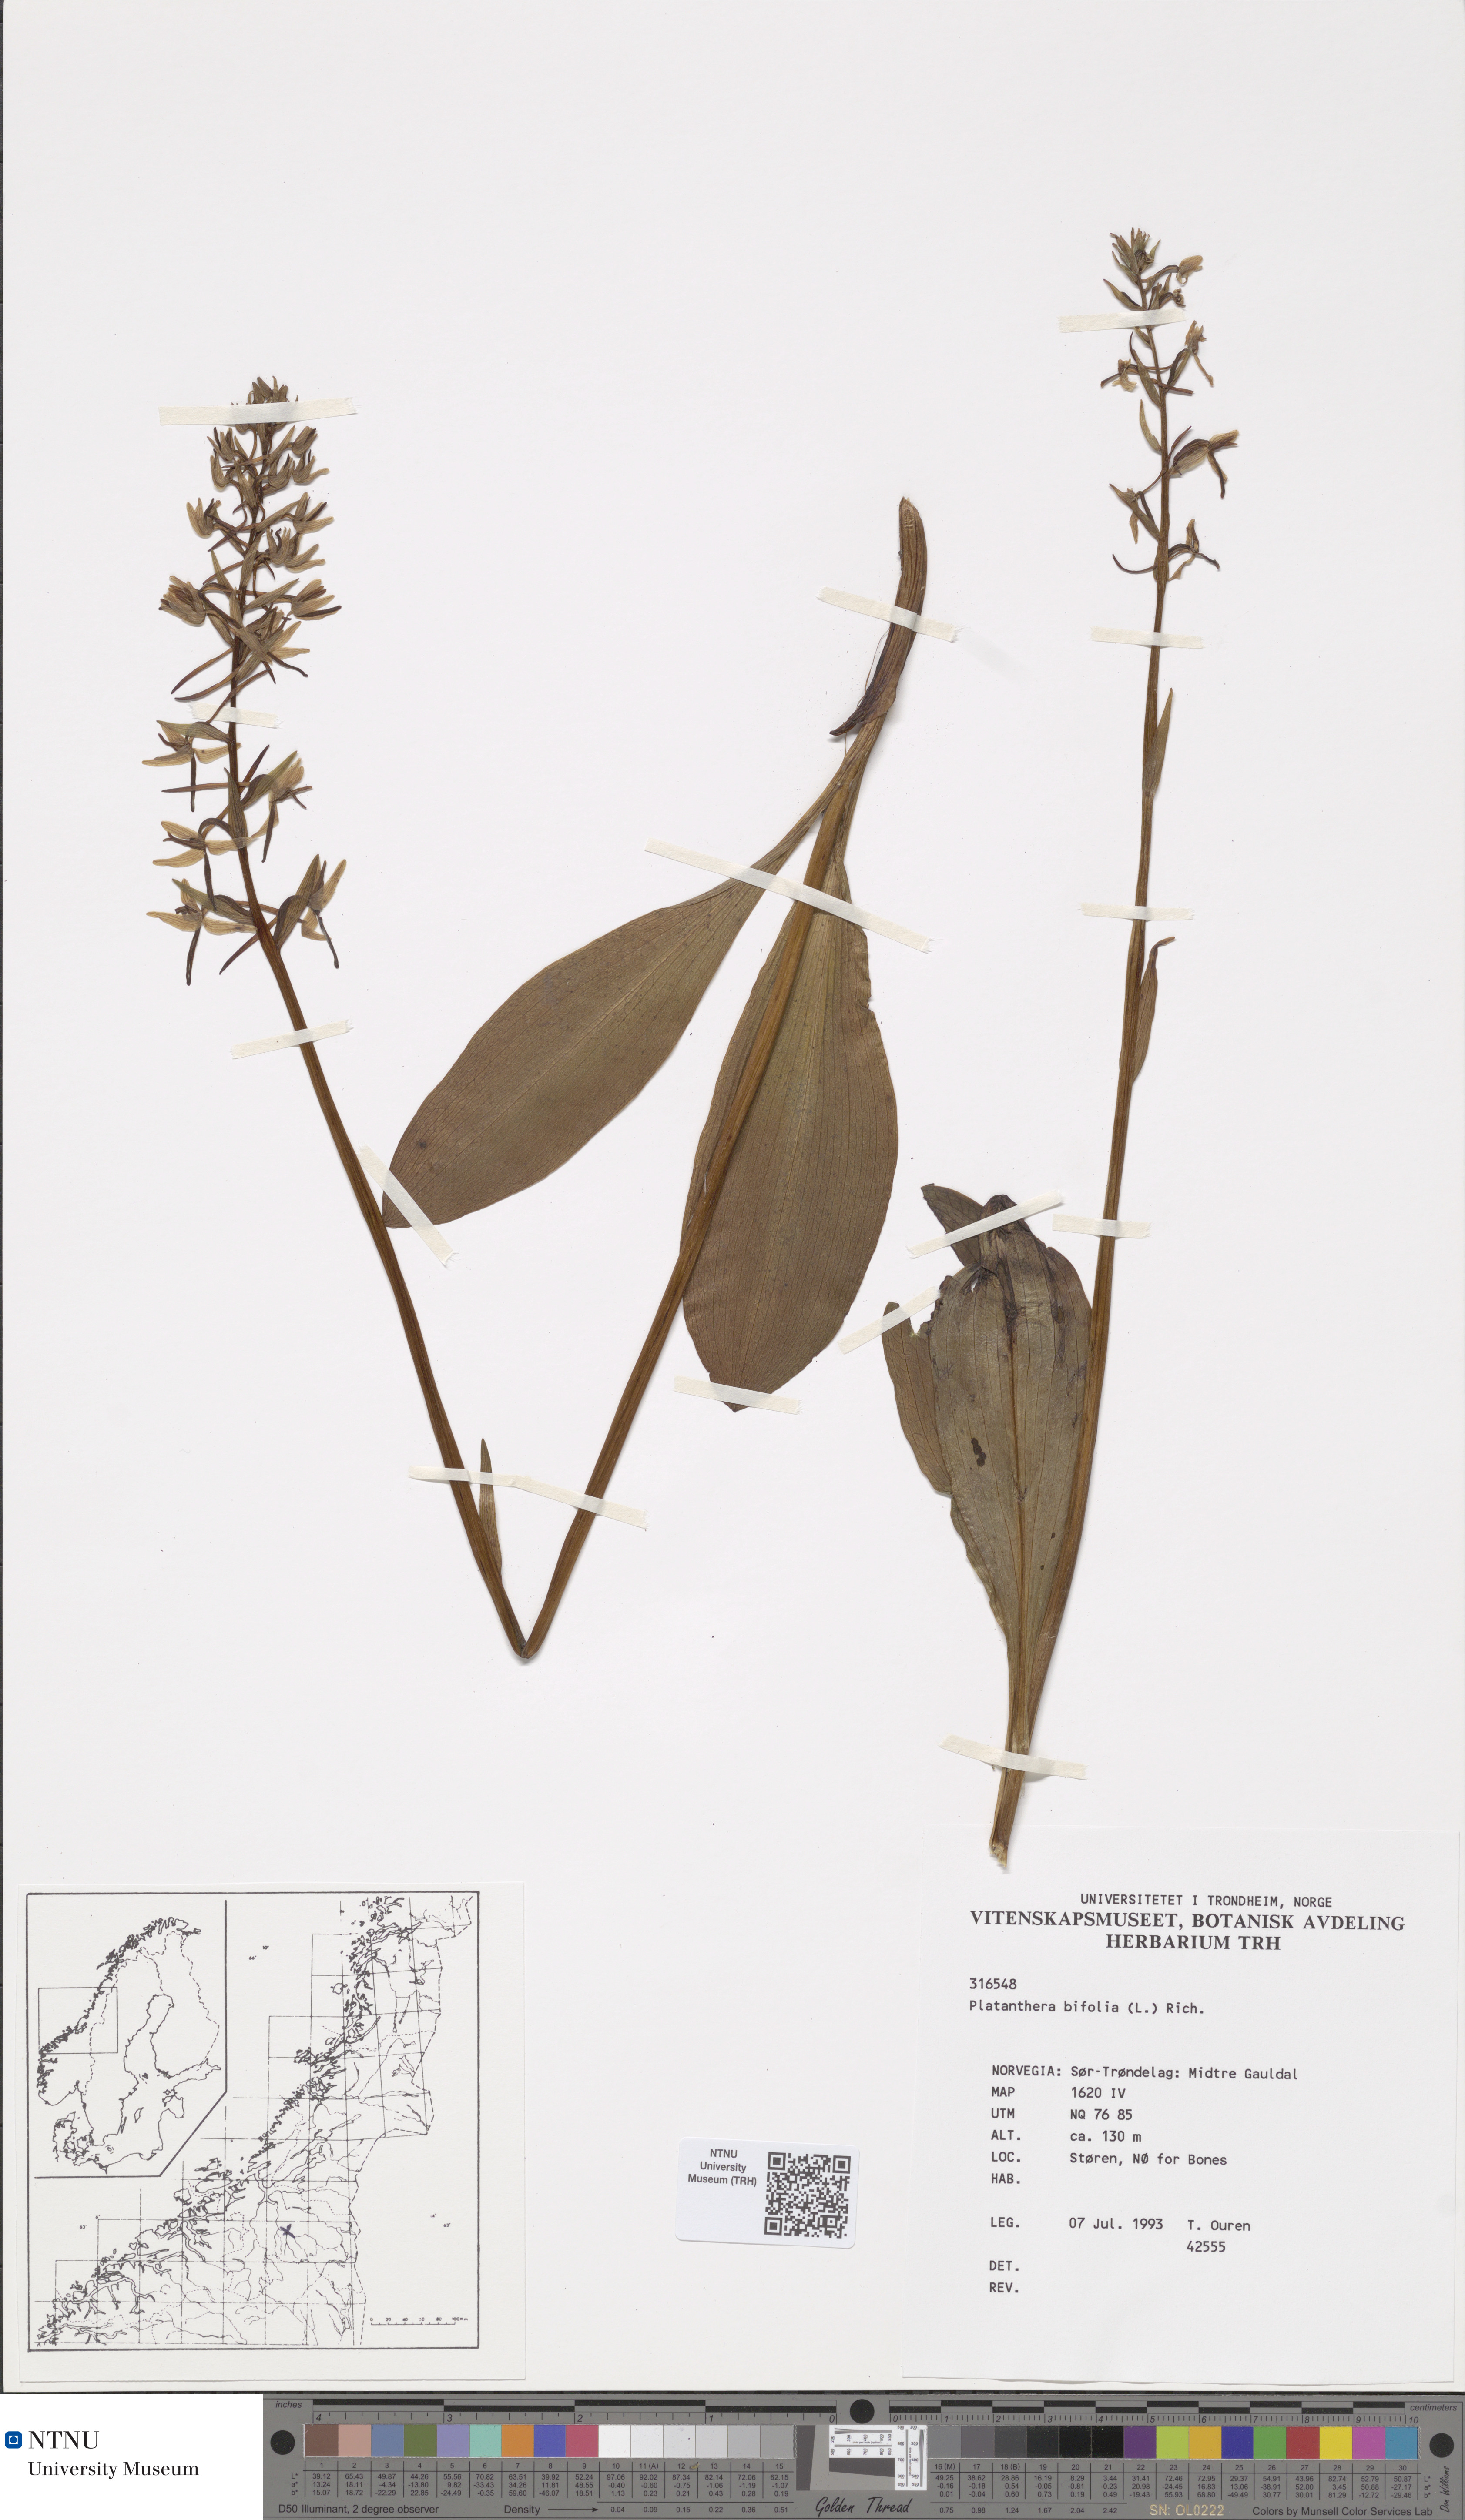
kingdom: Plantae
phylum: Tracheophyta
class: Liliopsida
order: Asparagales
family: Orchidaceae
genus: Platanthera
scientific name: Platanthera bifolia
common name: Lesser butterfly-orchid
